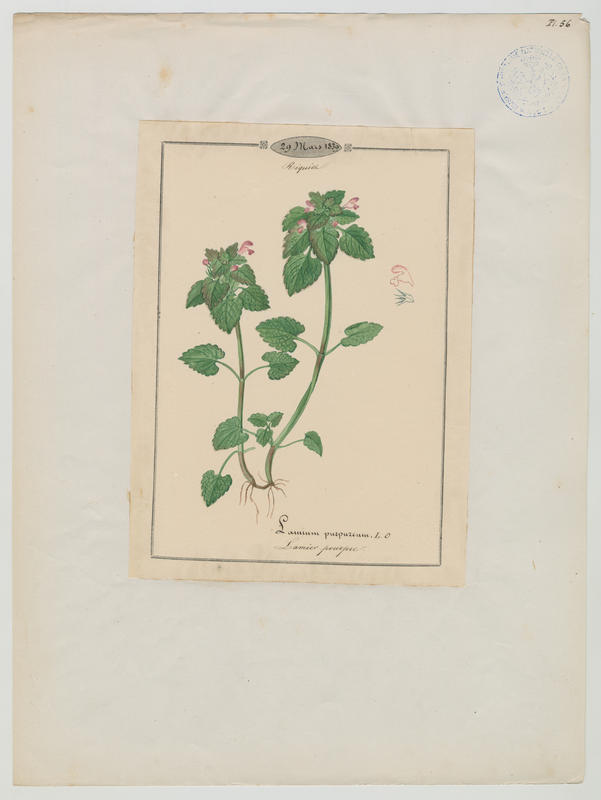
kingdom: Plantae
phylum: Tracheophyta
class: Magnoliopsida
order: Lamiales
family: Lamiaceae
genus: Lamium
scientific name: Lamium purpureum
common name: Red dead-nettle
